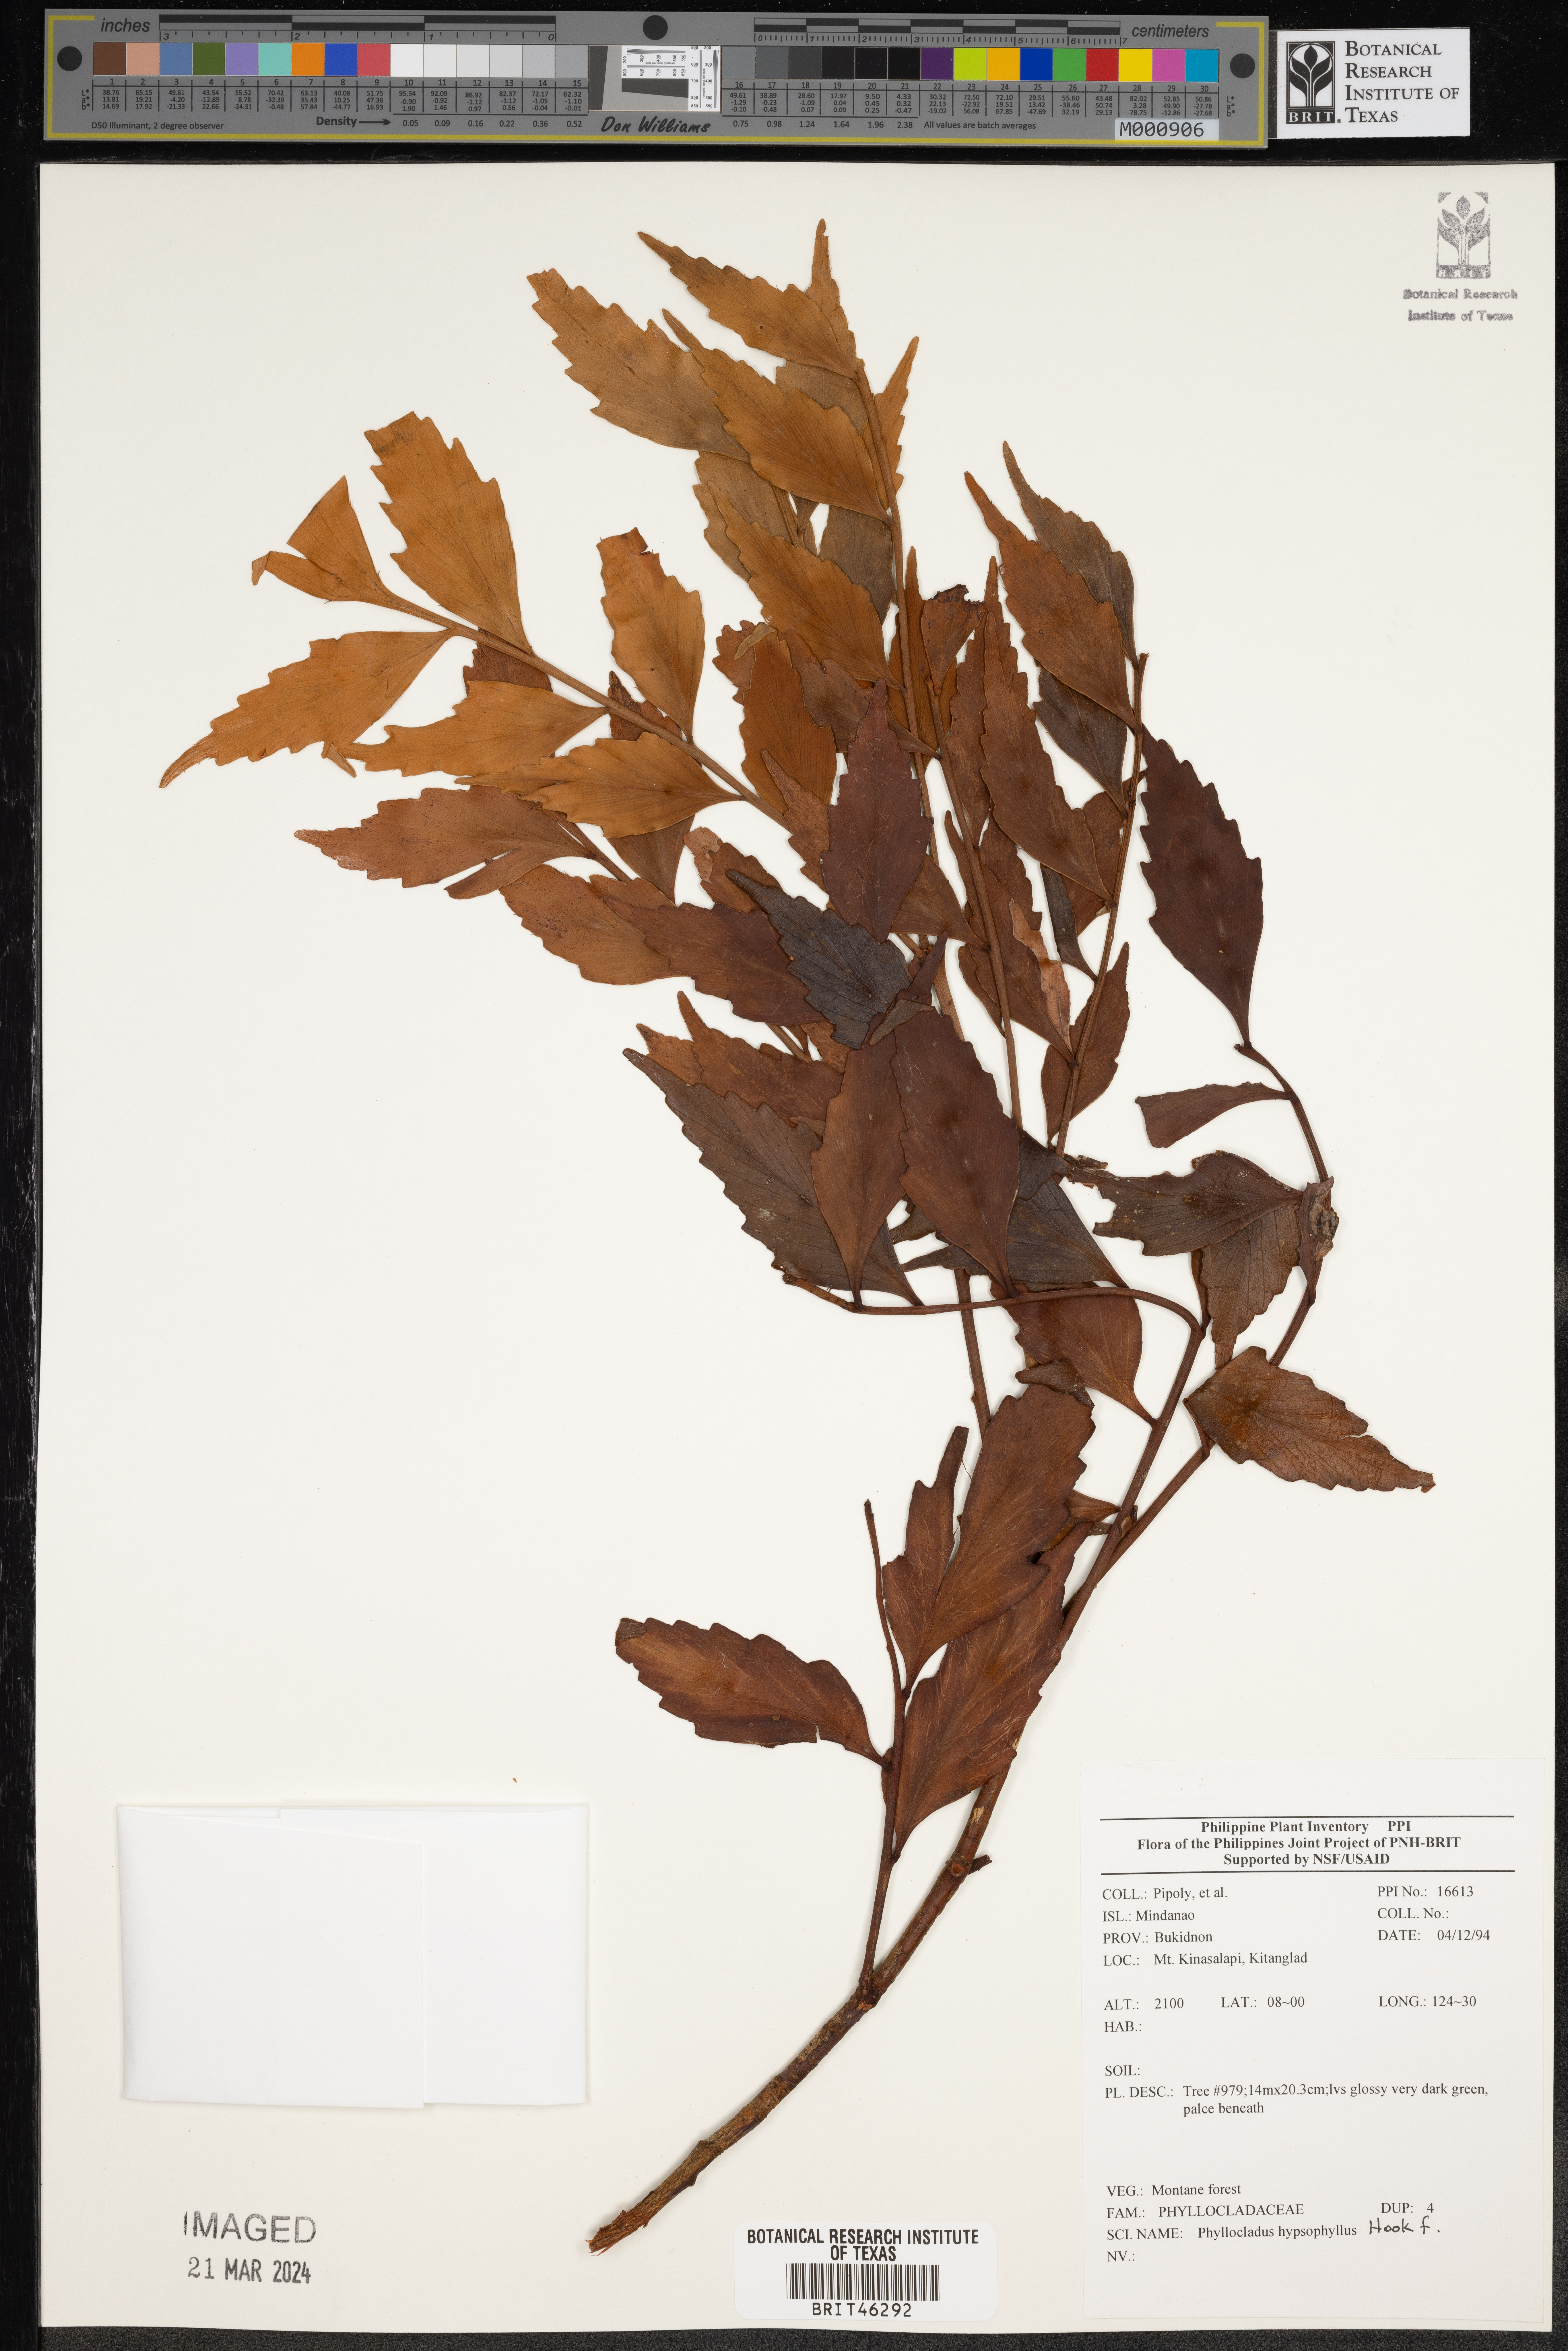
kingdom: Plantae
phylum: Tracheophyta
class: Pinopsida
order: Pinales
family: Phyllocladaceae
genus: Phyllocladus
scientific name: Phyllocladus hypophyllus
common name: Celery pine
